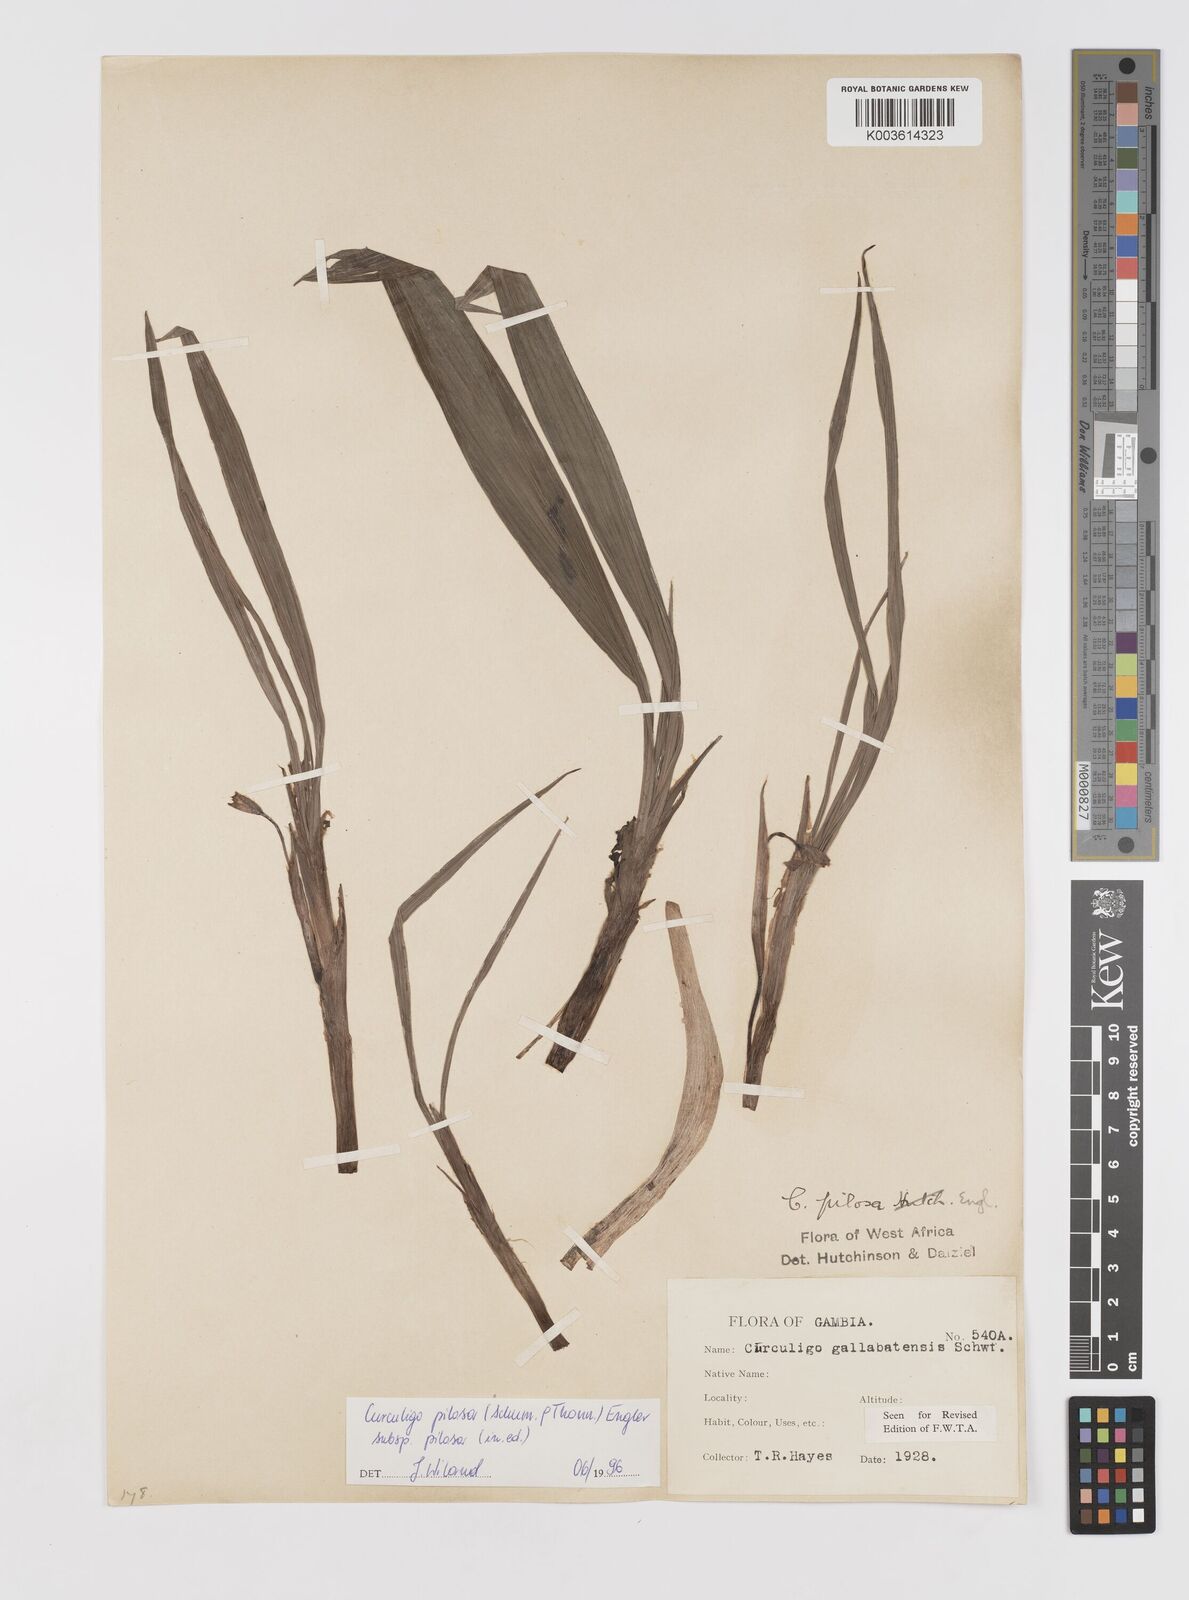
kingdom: Plantae
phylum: Tracheophyta
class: Liliopsida
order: Asparagales
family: Hypoxidaceae
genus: Curculigo
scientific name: Curculigo pilosa
